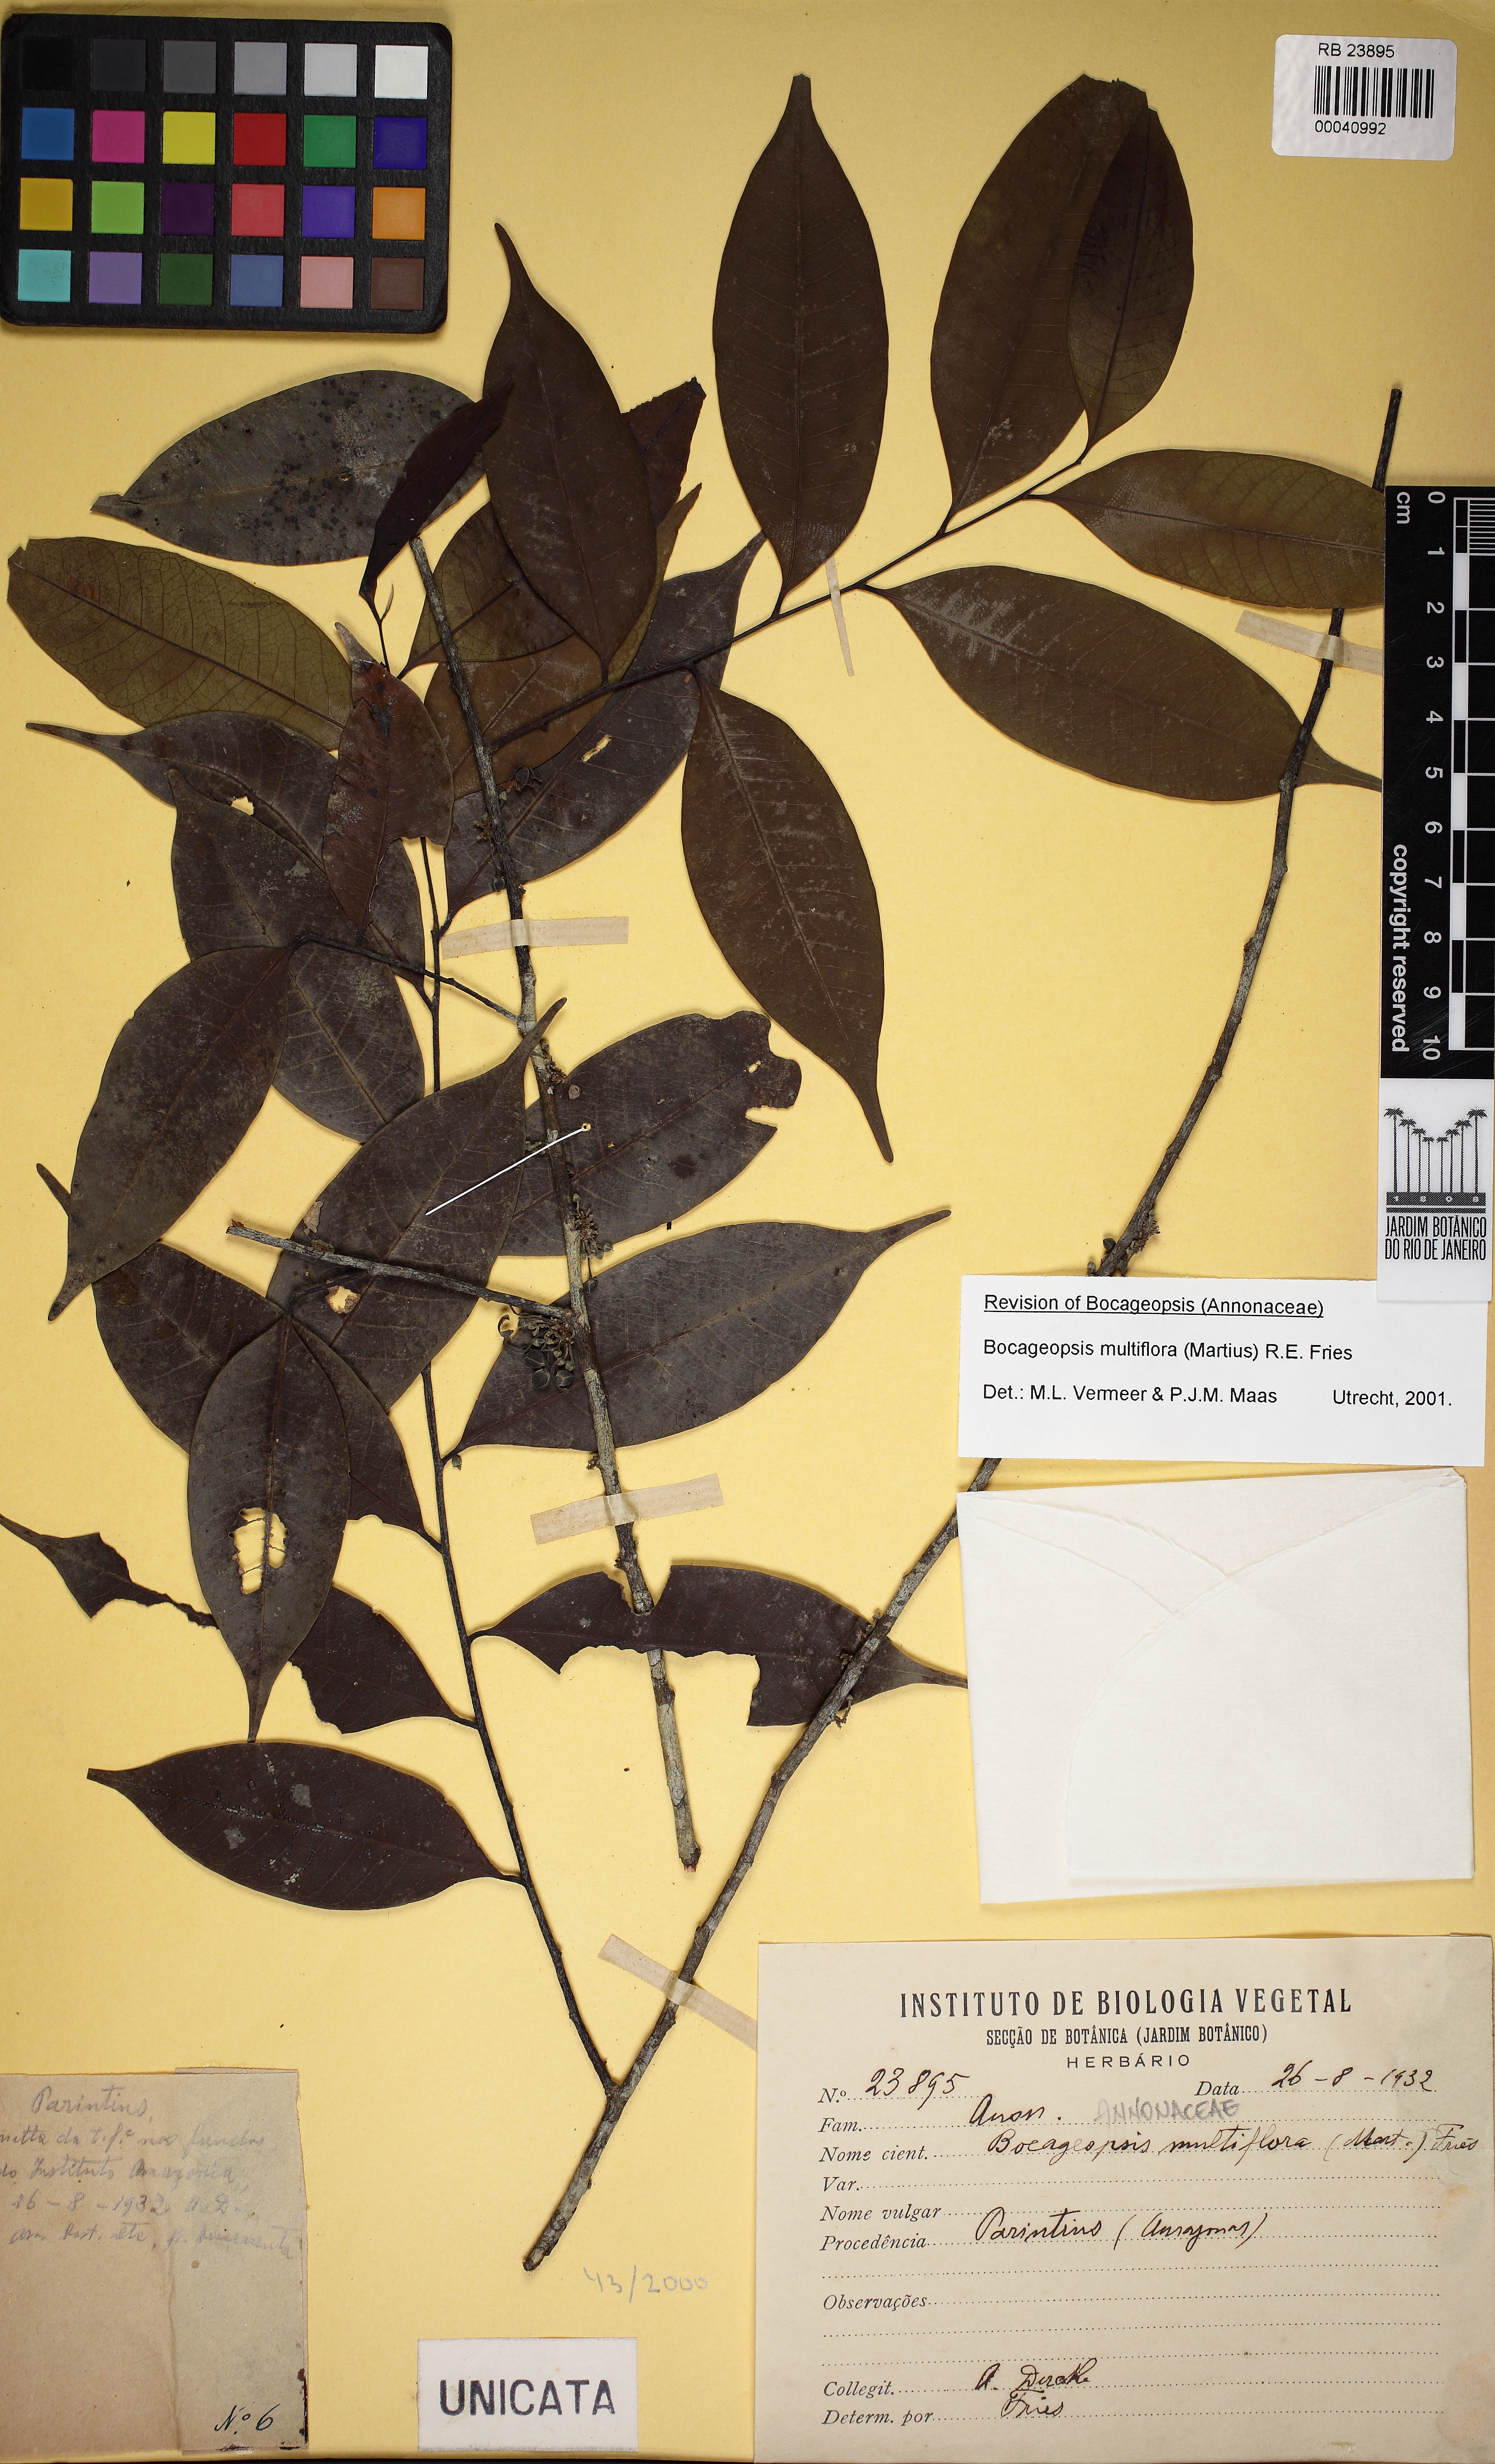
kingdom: Plantae
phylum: Tracheophyta
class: Magnoliopsida
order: Magnoliales
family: Annonaceae
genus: Bocageopsis
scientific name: Bocageopsis multiflora
